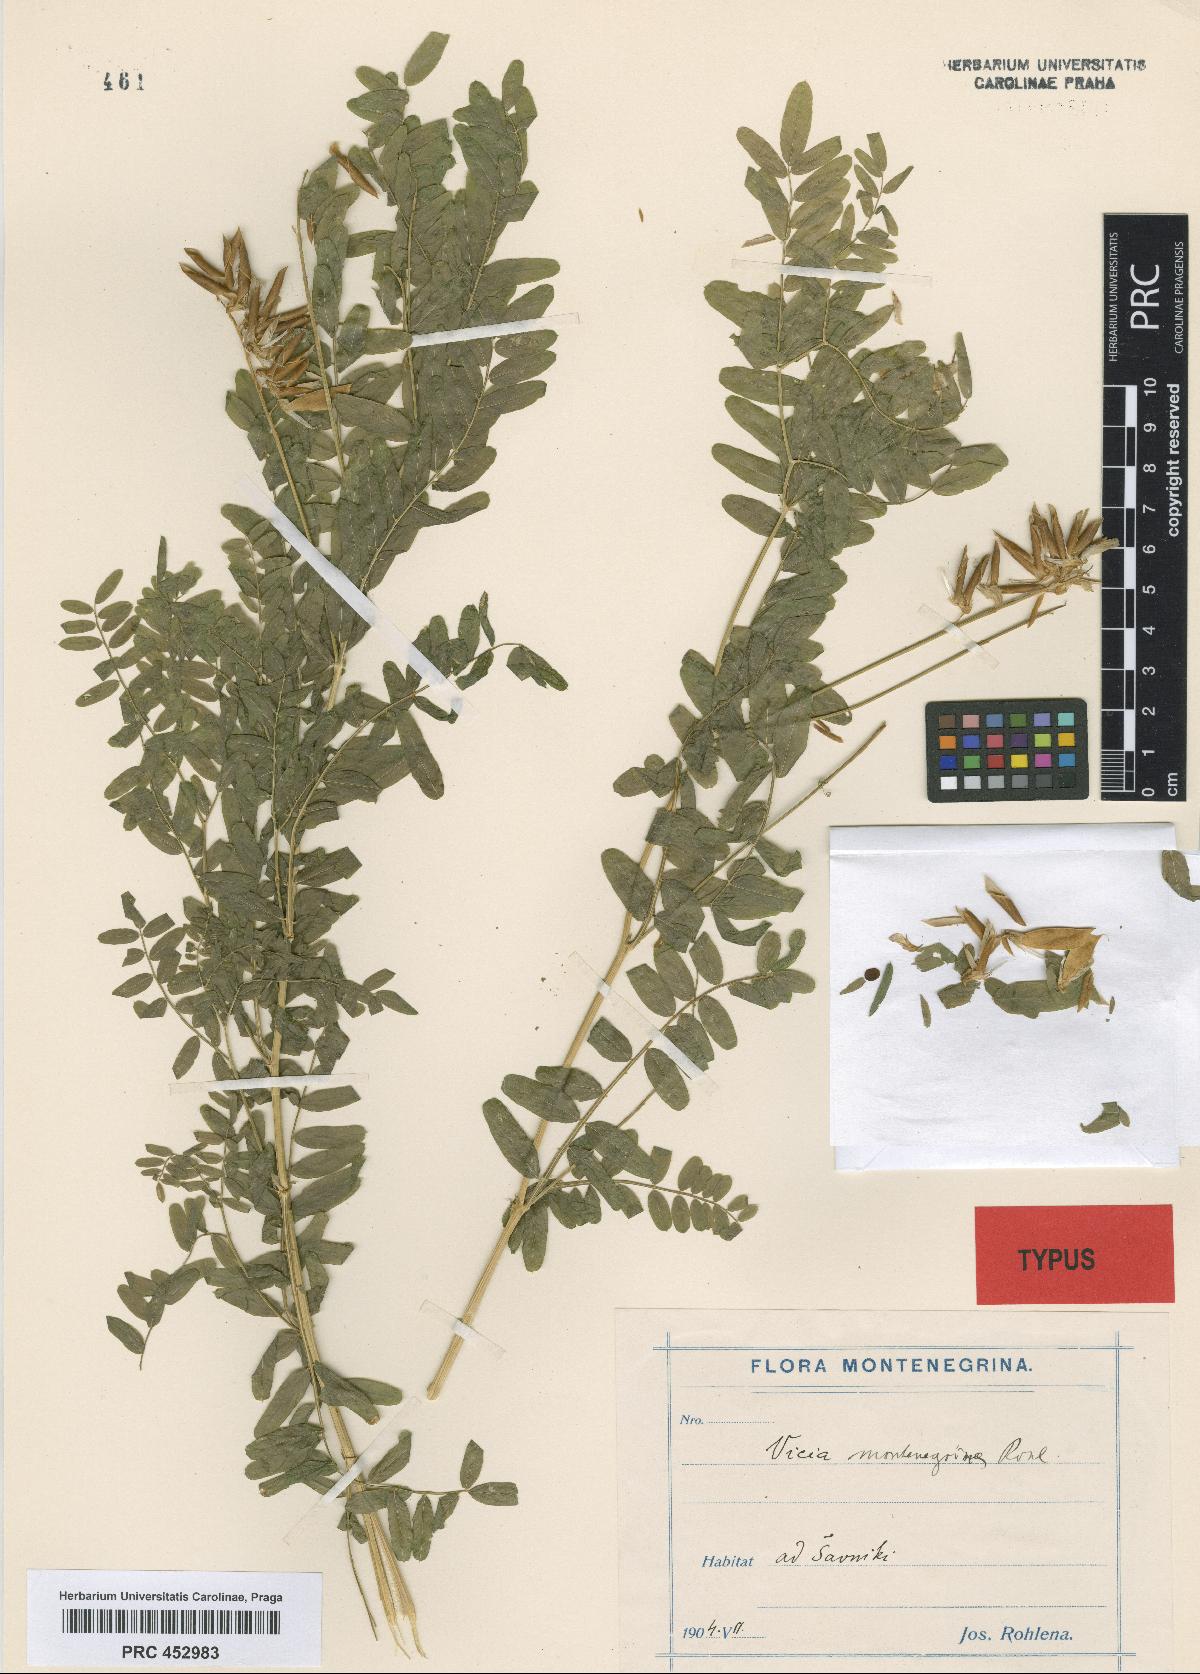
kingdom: Plantae
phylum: Tracheophyta
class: Magnoliopsida
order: Fabales
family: Fabaceae
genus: Vicia
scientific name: Vicia montenegrina
